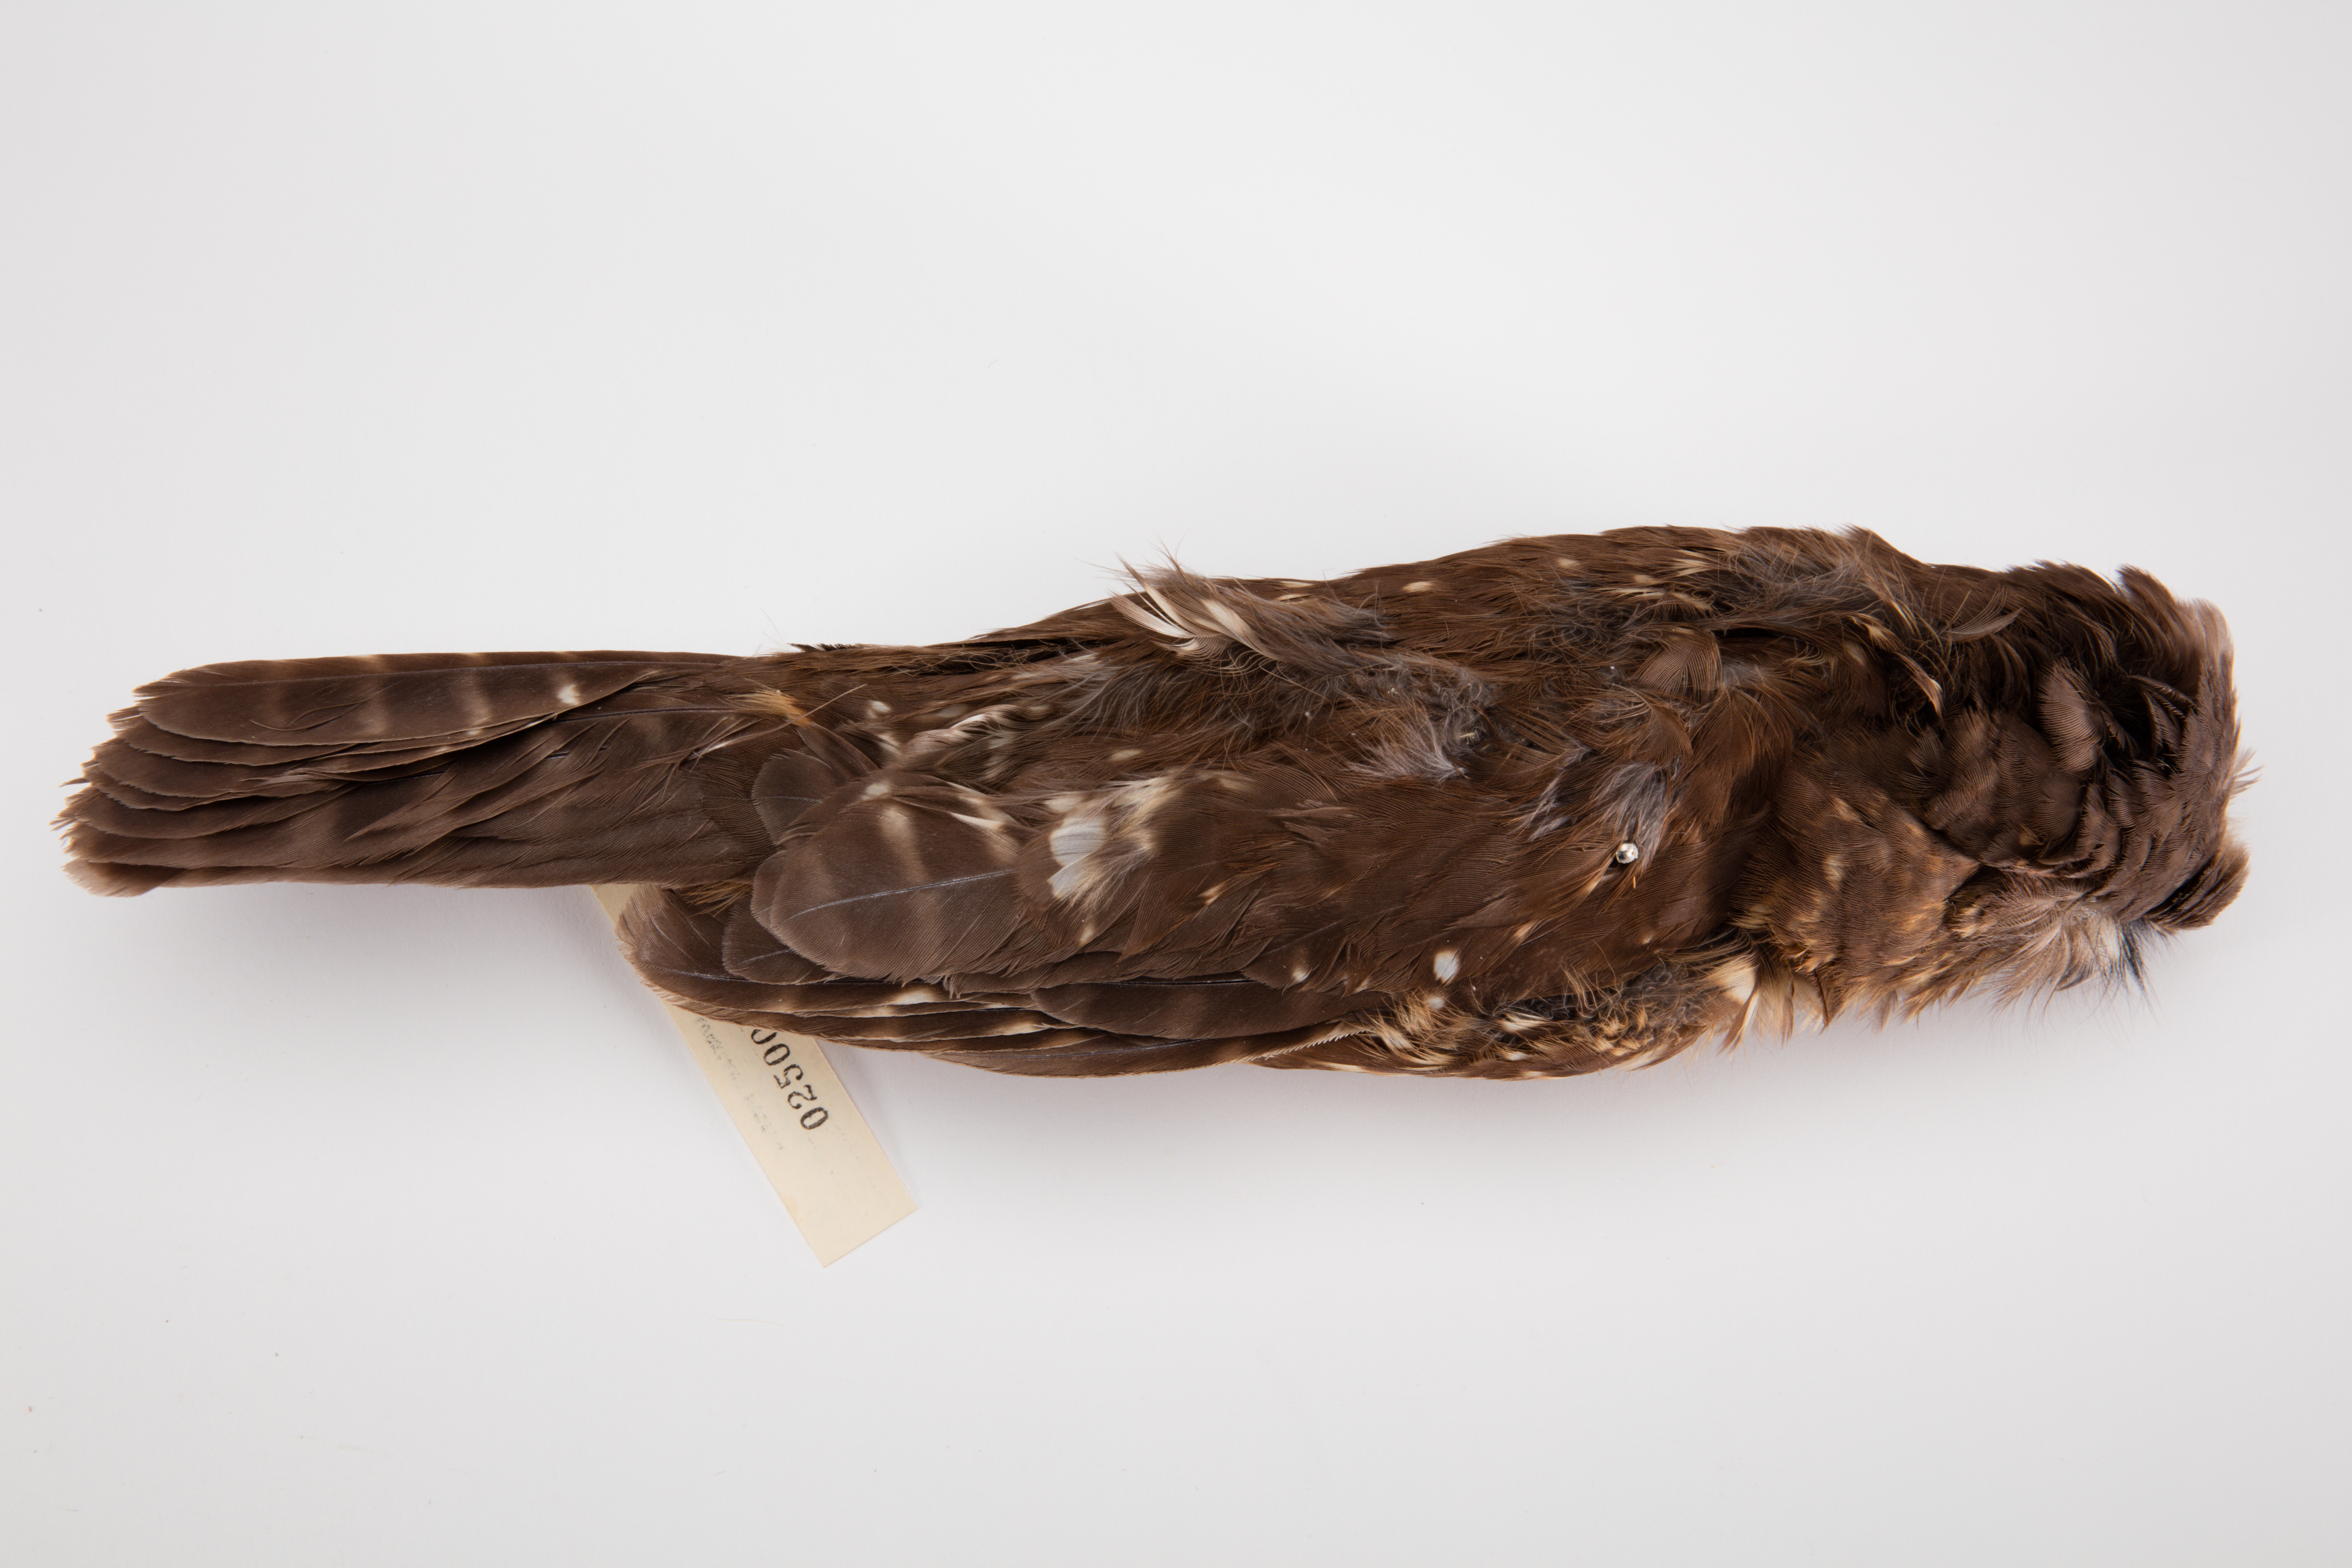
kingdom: Animalia
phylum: Chordata
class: Aves
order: Strigiformes
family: Strigidae
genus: Ninox
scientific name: Ninox novaeseelandiae
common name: Morepork
